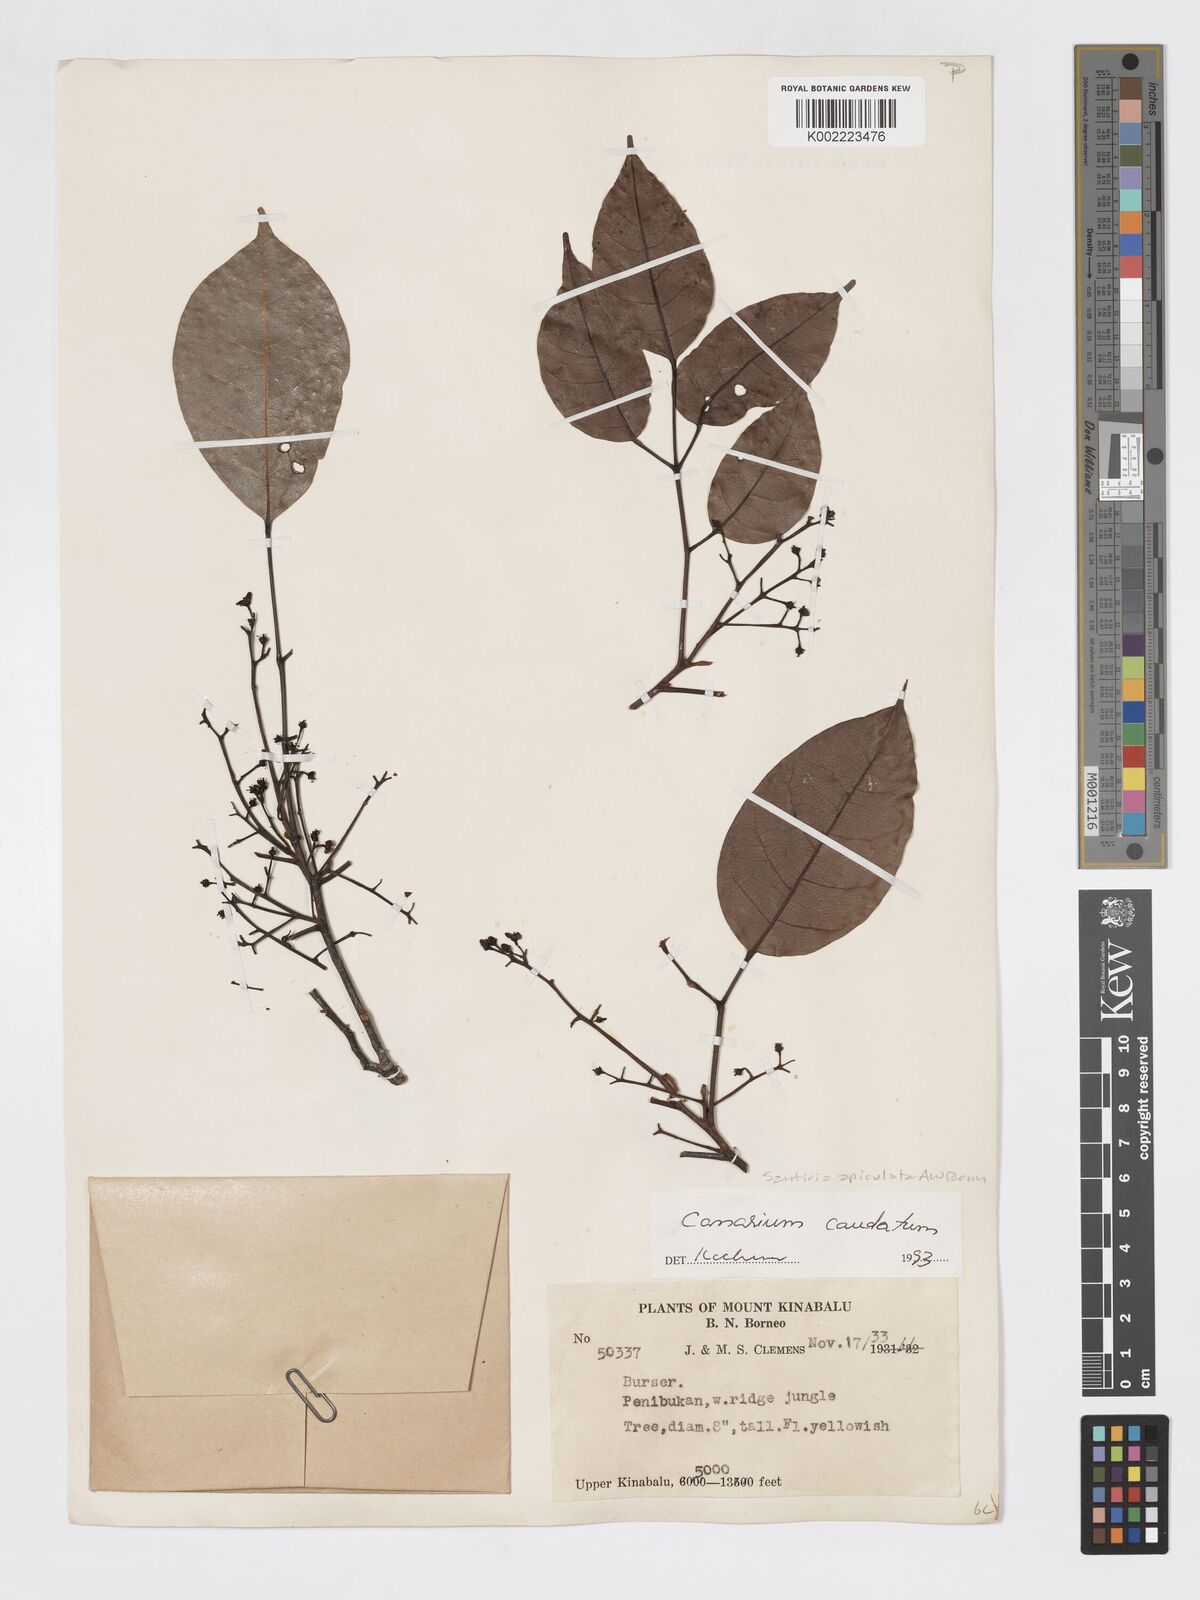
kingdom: Plantae
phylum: Tracheophyta
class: Magnoliopsida
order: Sapindales
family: Burseraceae
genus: Canarium
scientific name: Canarium caudatum
